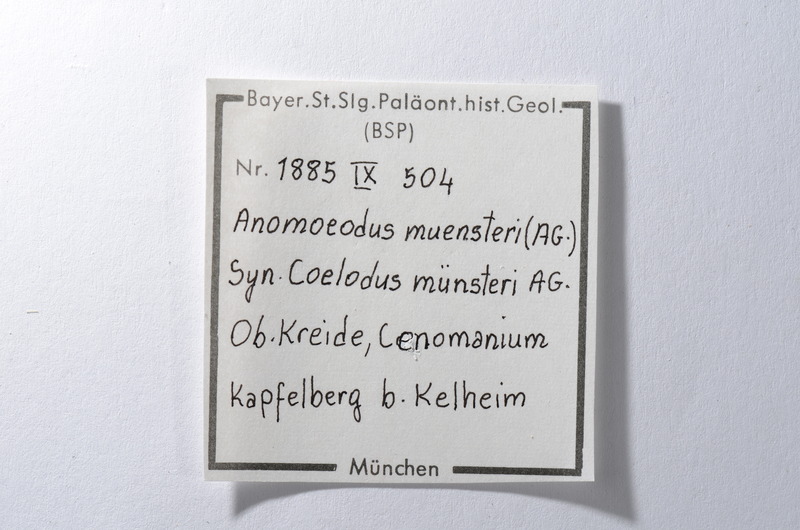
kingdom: Animalia
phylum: Chordata
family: Pycnodontidae
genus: Anomoeodus
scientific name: Anomoeodus
